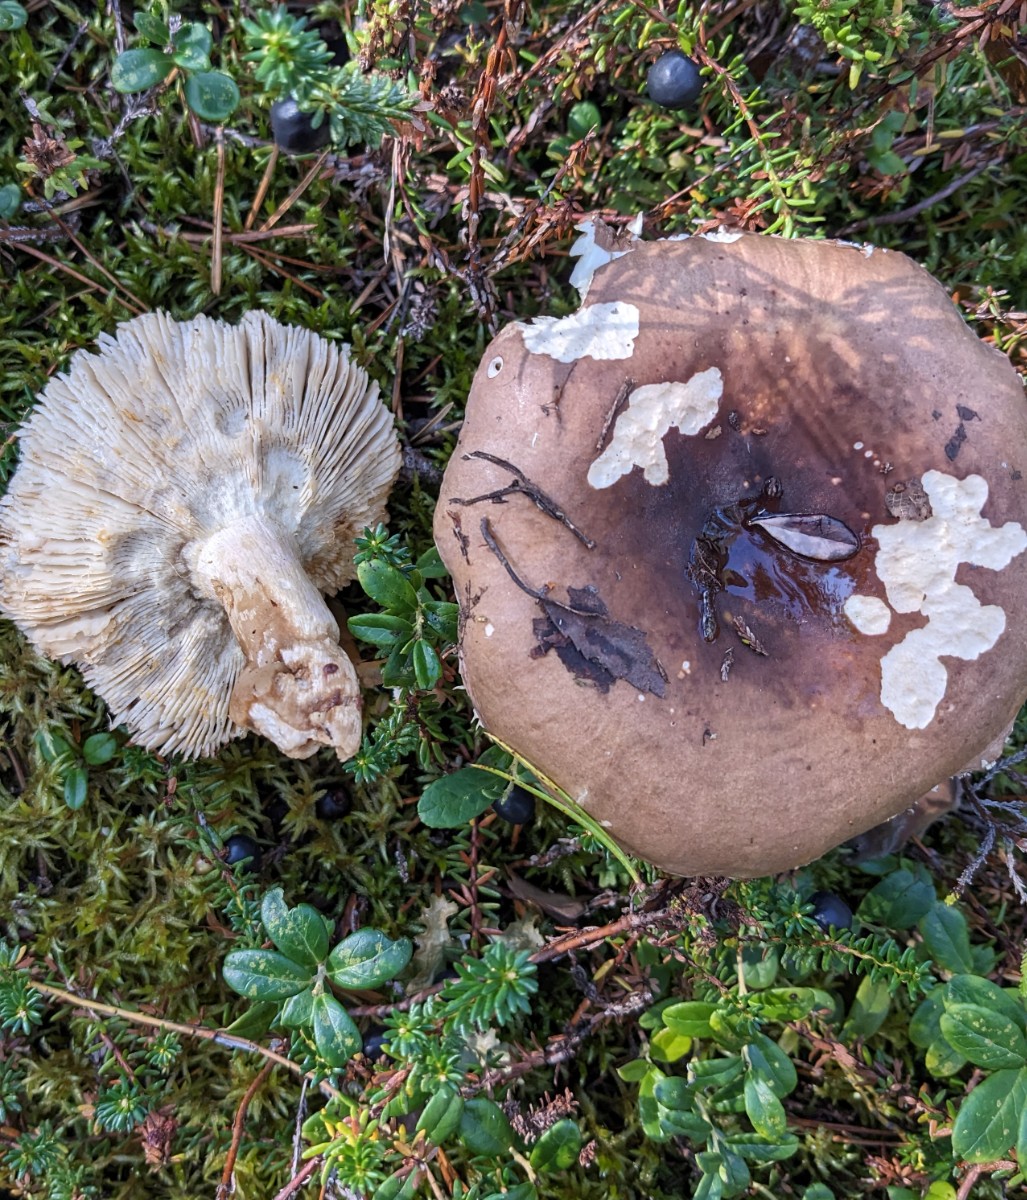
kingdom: Fungi
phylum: Basidiomycota
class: Agaricomycetes
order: Russulales
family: Russulaceae
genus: Russula
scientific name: Russula favrei
